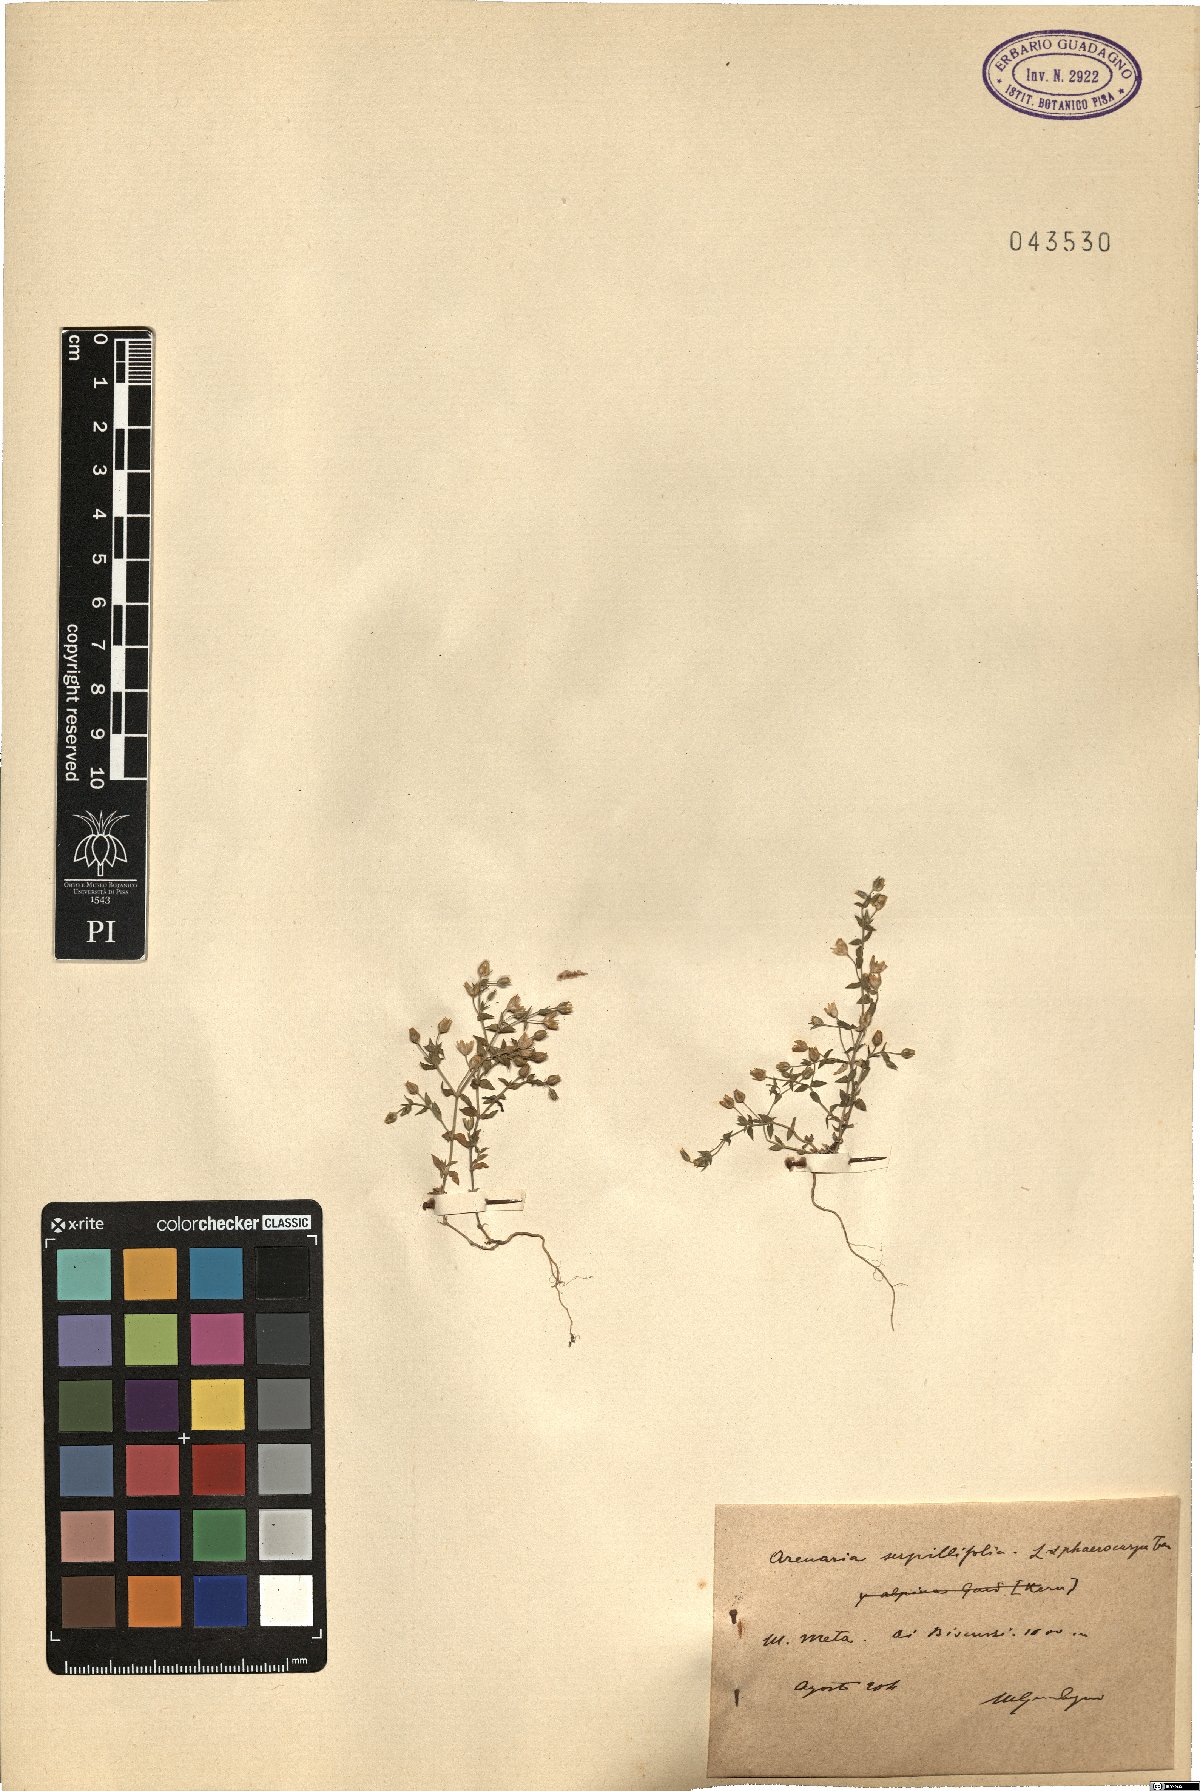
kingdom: Plantae
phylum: Tracheophyta
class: Magnoliopsida
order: Caryophyllales
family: Caryophyllaceae
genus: Arenaria
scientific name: Arenaria serpyllifolia
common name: Thyme-leaved sandwort
